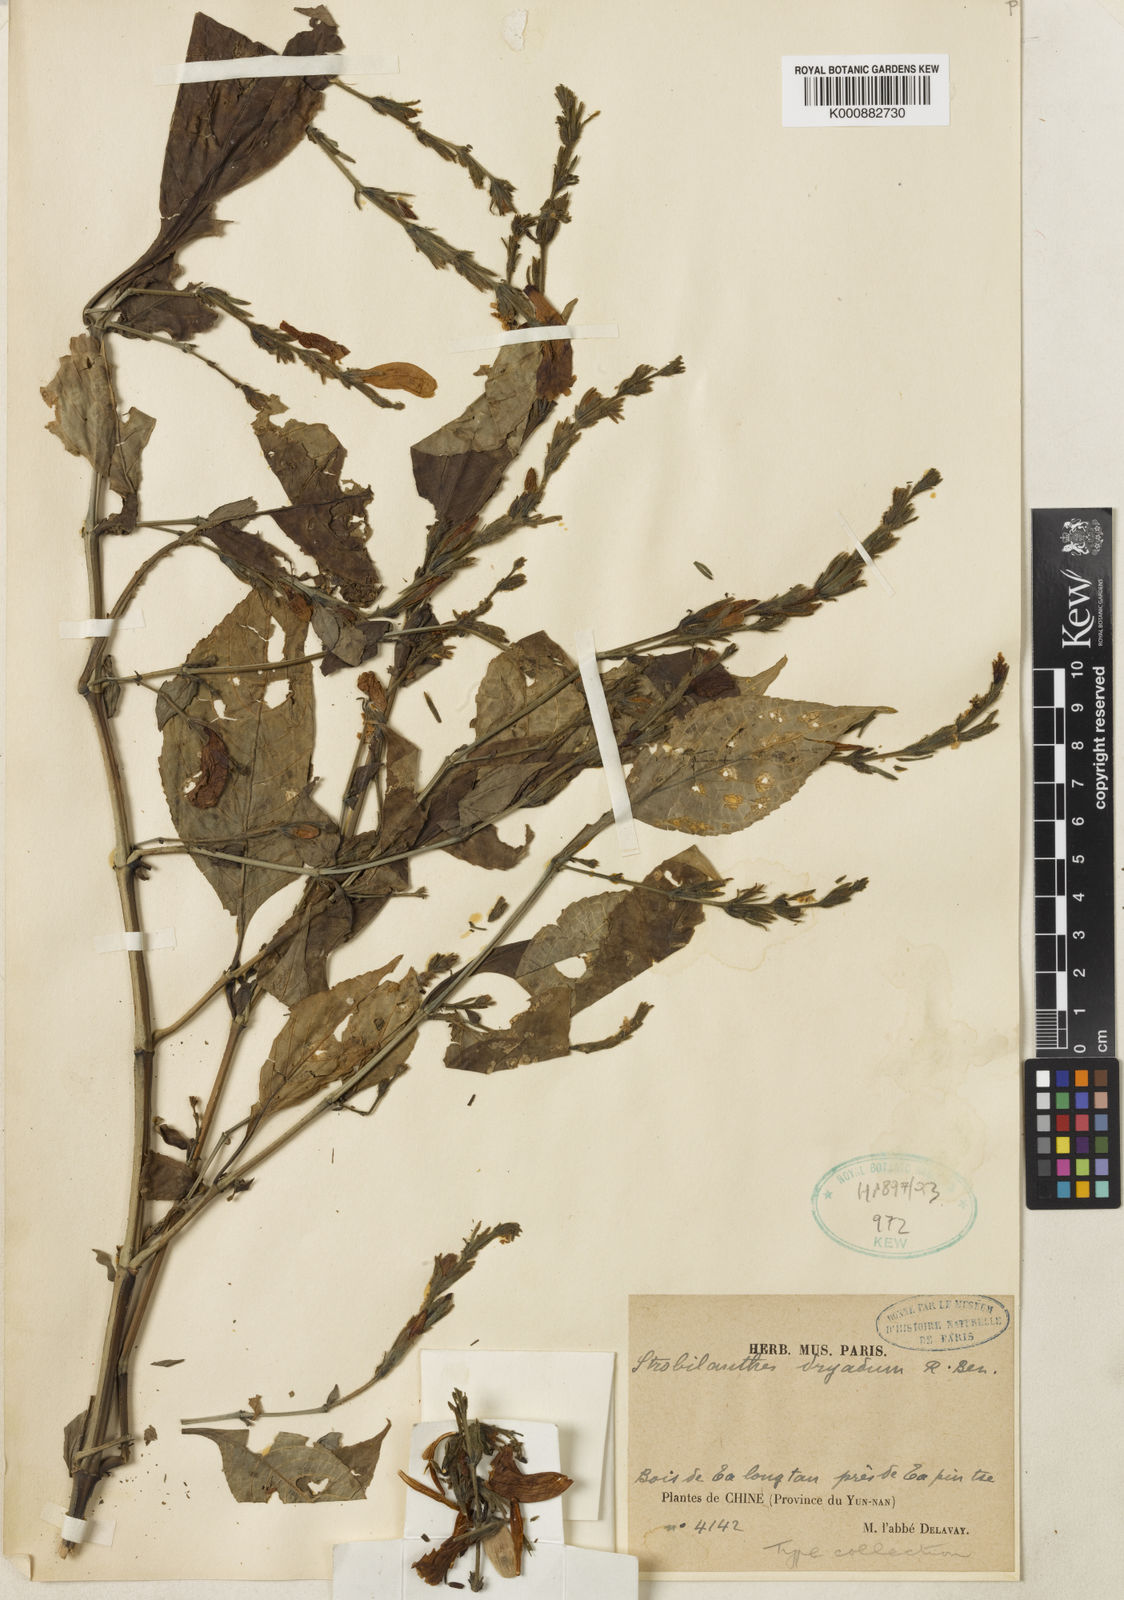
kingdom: Plantae
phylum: Tracheophyta
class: Magnoliopsida
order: Lamiales
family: Acanthaceae
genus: Strobilanthes
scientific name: Strobilanthes dryadum
